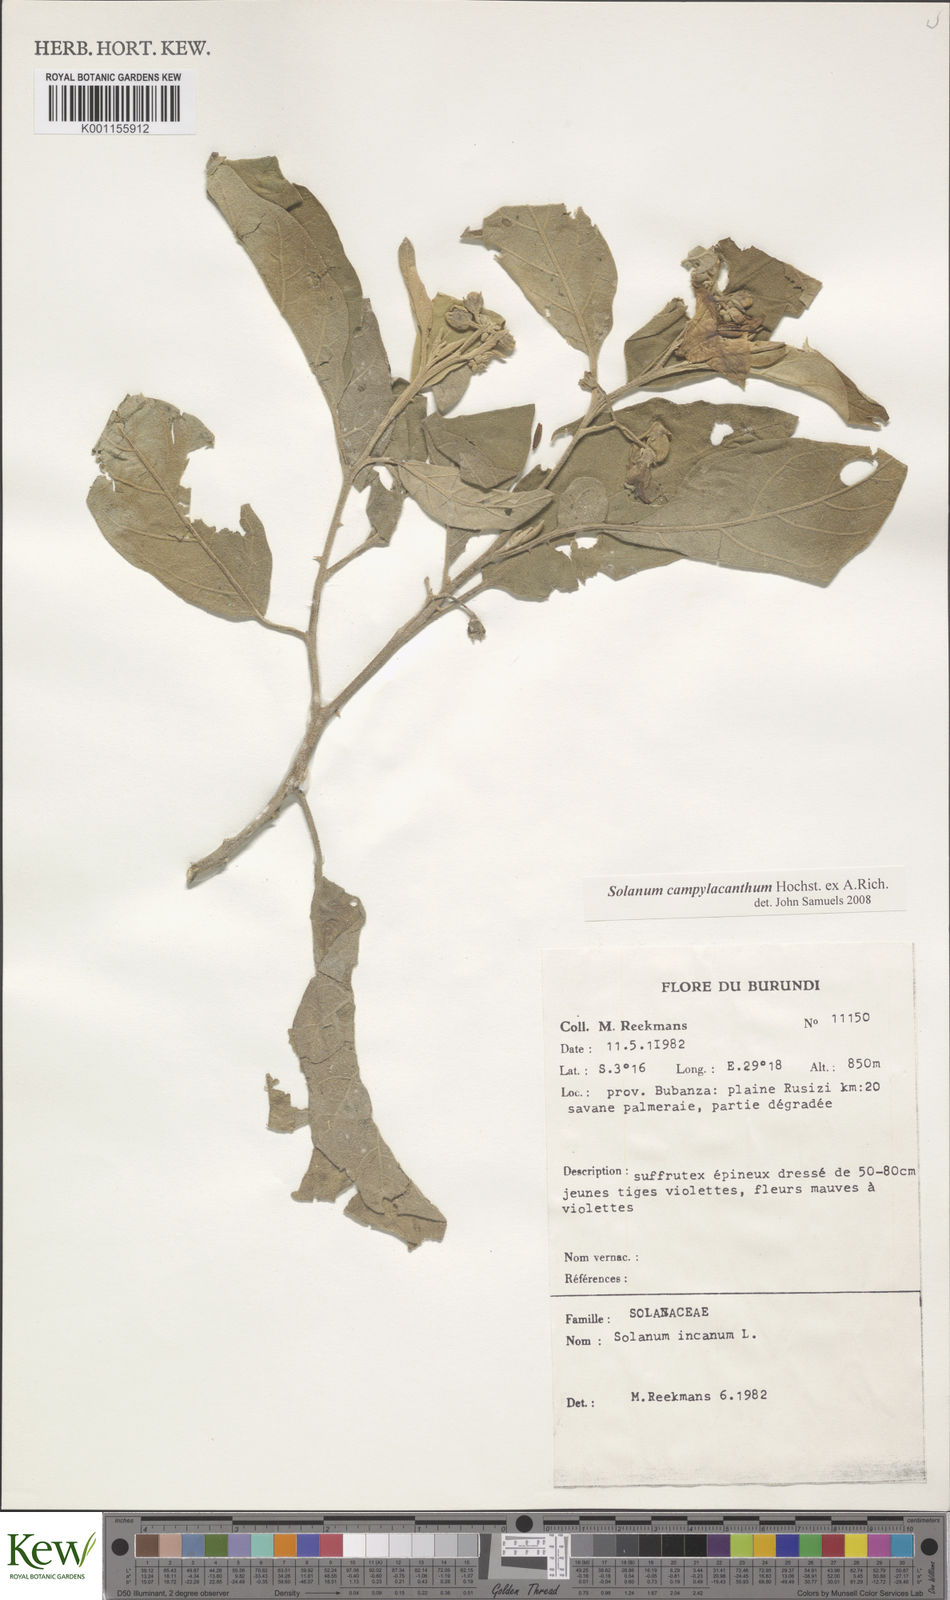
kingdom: Plantae
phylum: Tracheophyta
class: Magnoliopsida
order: Solanales
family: Solanaceae
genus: Solanum
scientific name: Solanum campylacanthum
